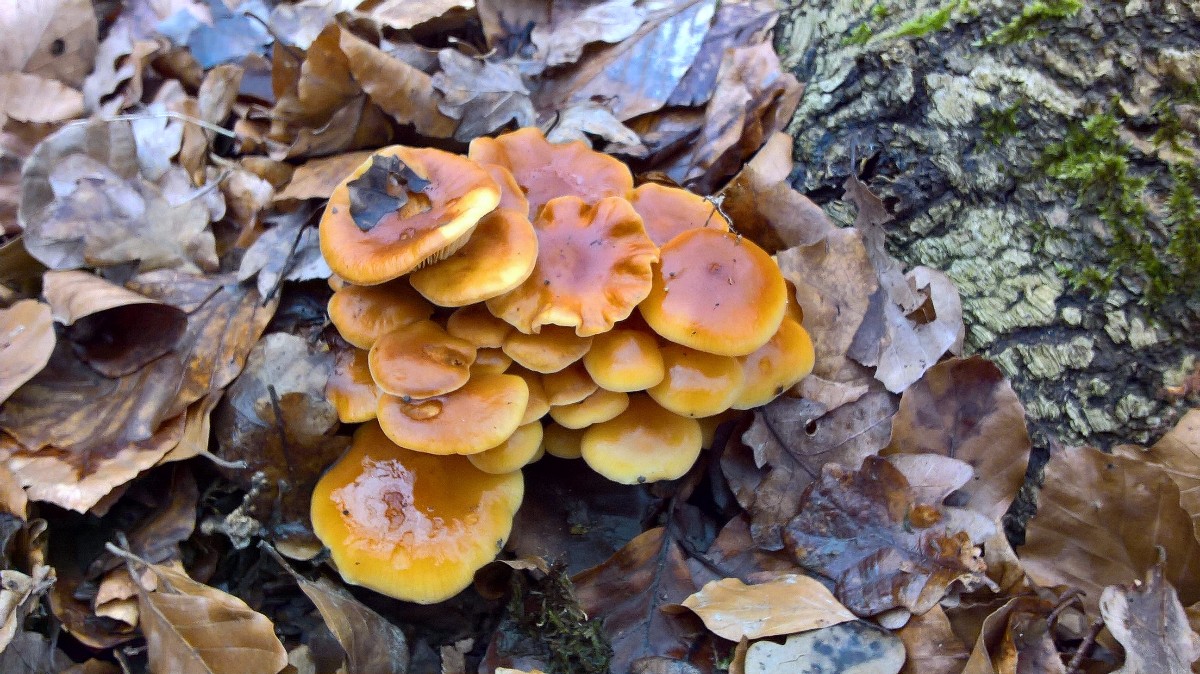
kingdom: Fungi
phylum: Basidiomycota
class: Agaricomycetes
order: Agaricales
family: Physalacriaceae
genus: Flammulina
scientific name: Flammulina velutipes
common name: gul fløjlsfod
